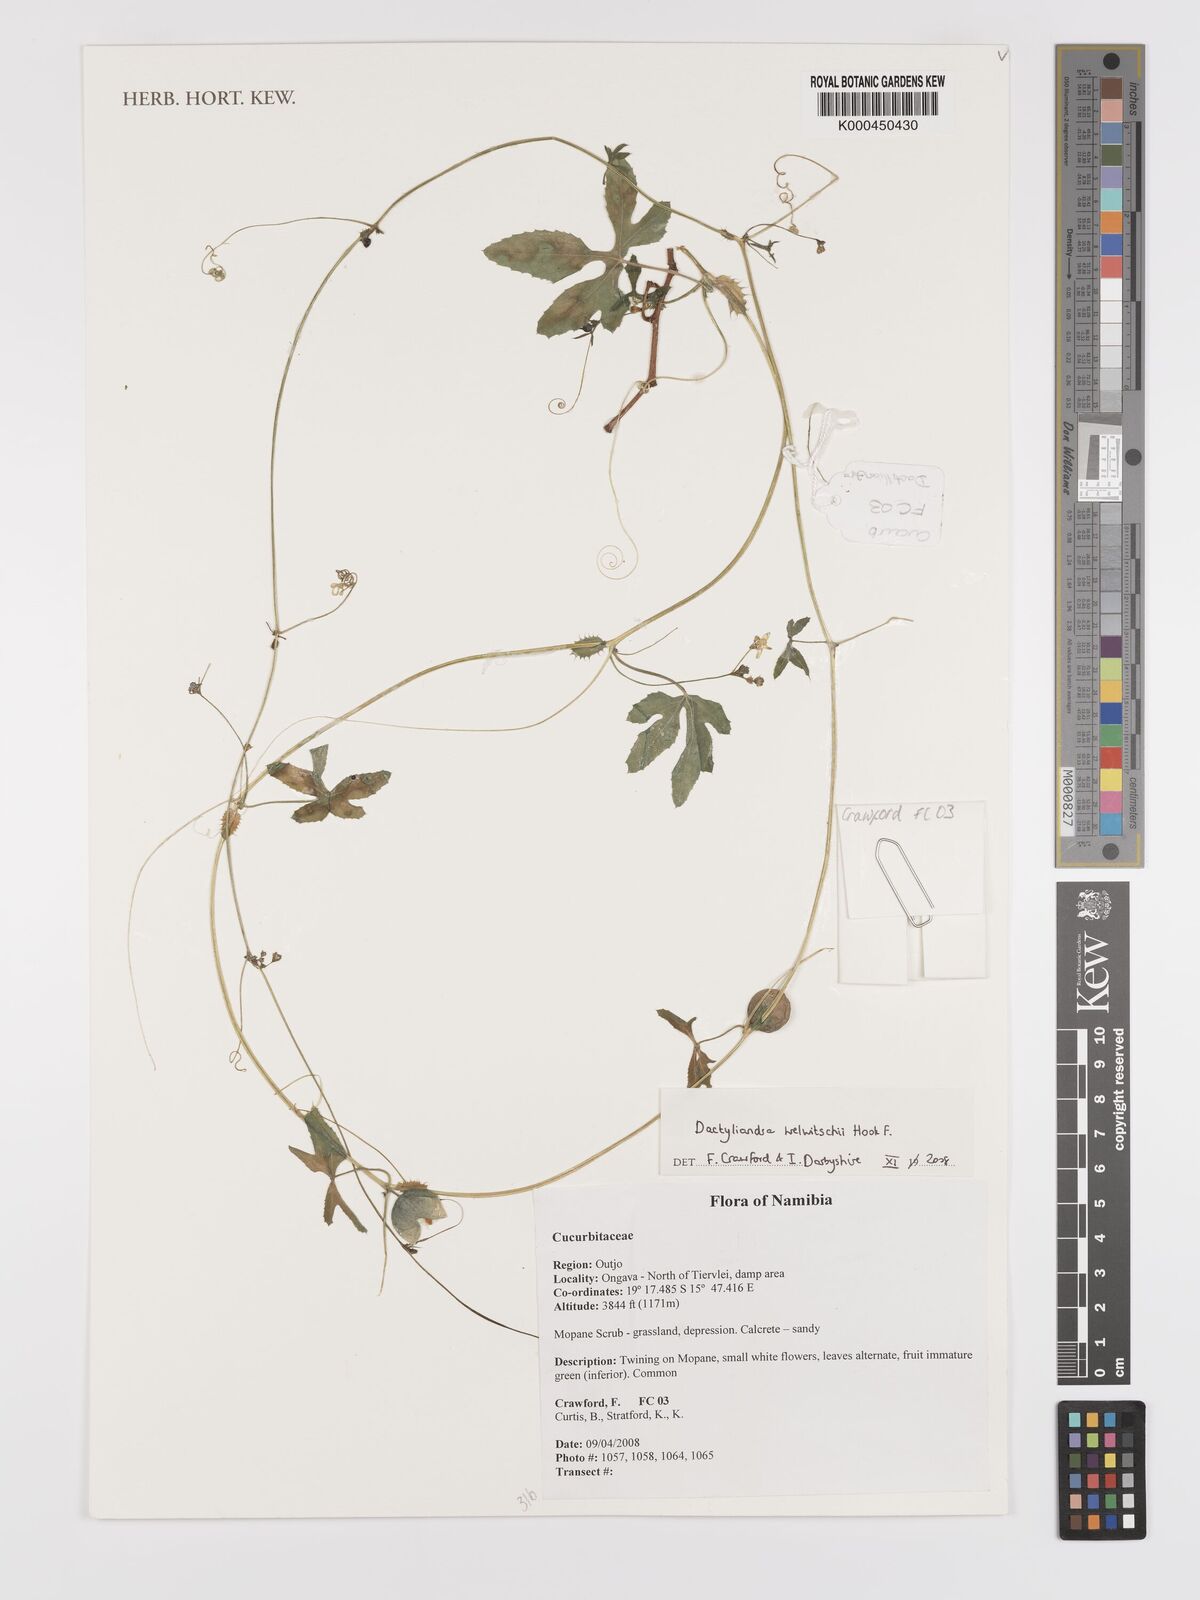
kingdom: Plantae
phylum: Tracheophyta
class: Magnoliopsida
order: Cucurbitales
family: Cucurbitaceae
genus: Dactyliandra
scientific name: Dactyliandra welwitschii
